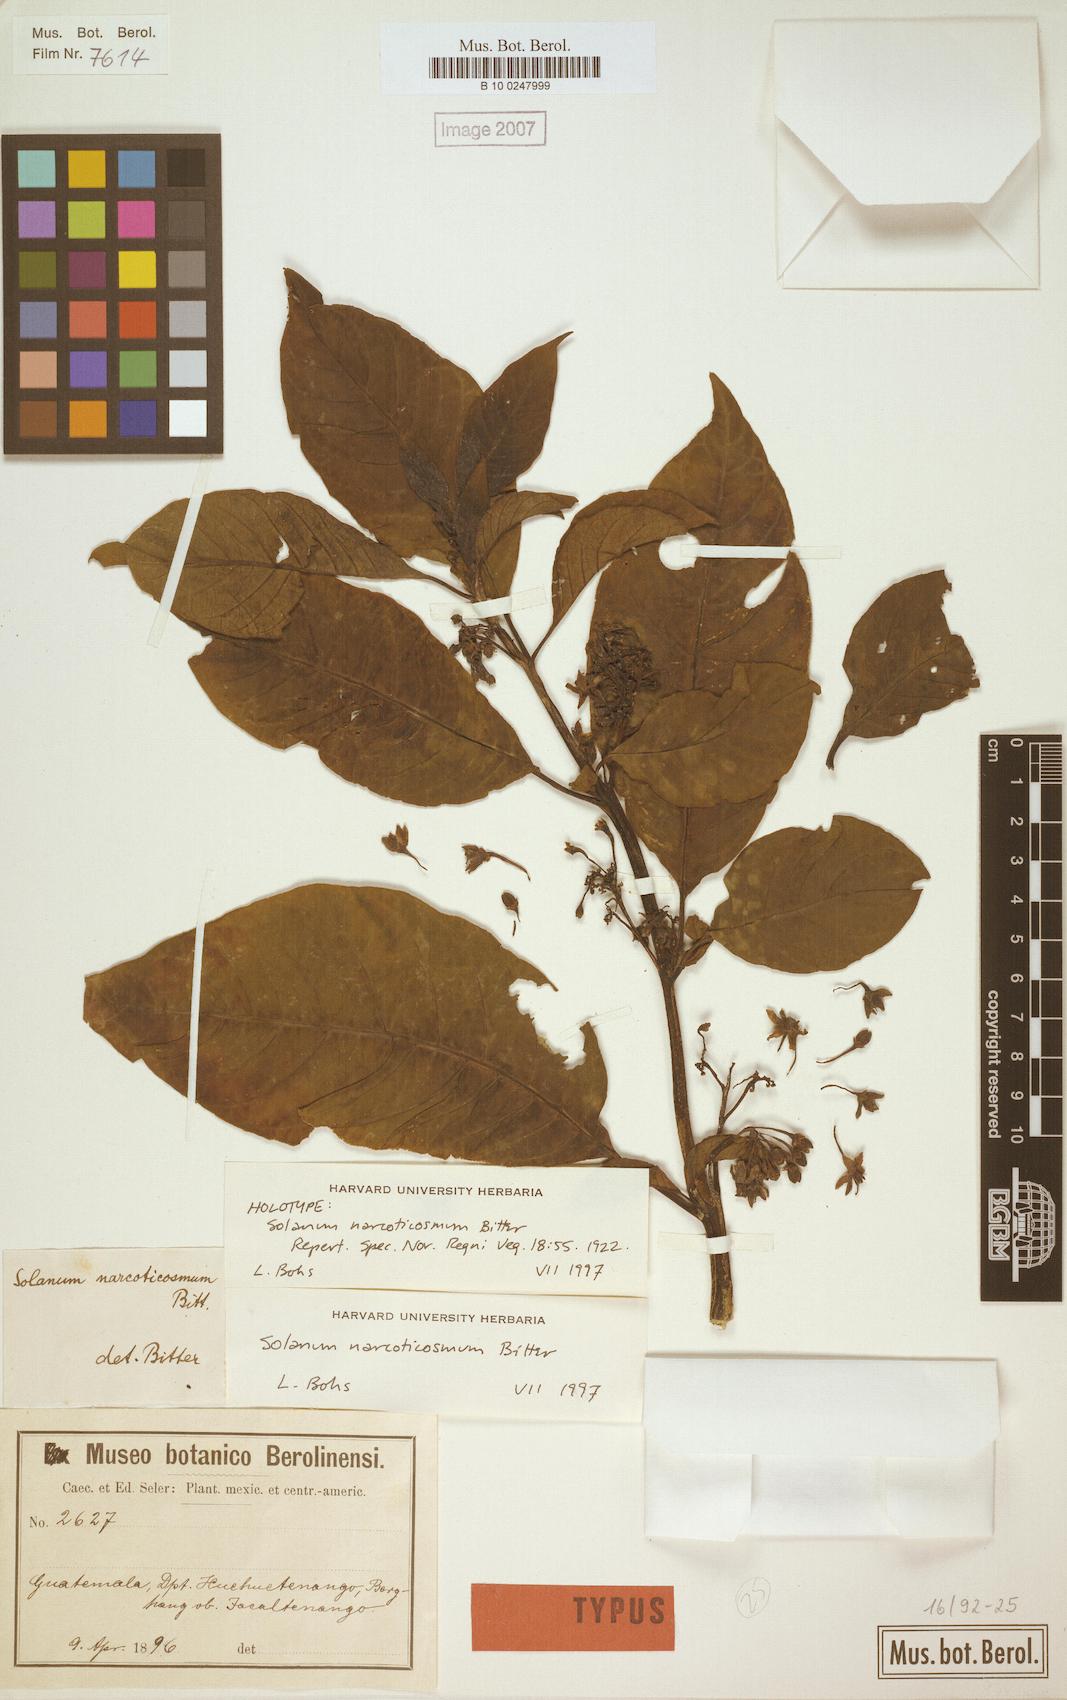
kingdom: Plantae
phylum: Tracheophyta
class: Magnoliopsida
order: Solanales
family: Solanaceae
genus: Solanum
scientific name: Solanum narcoticosmum
